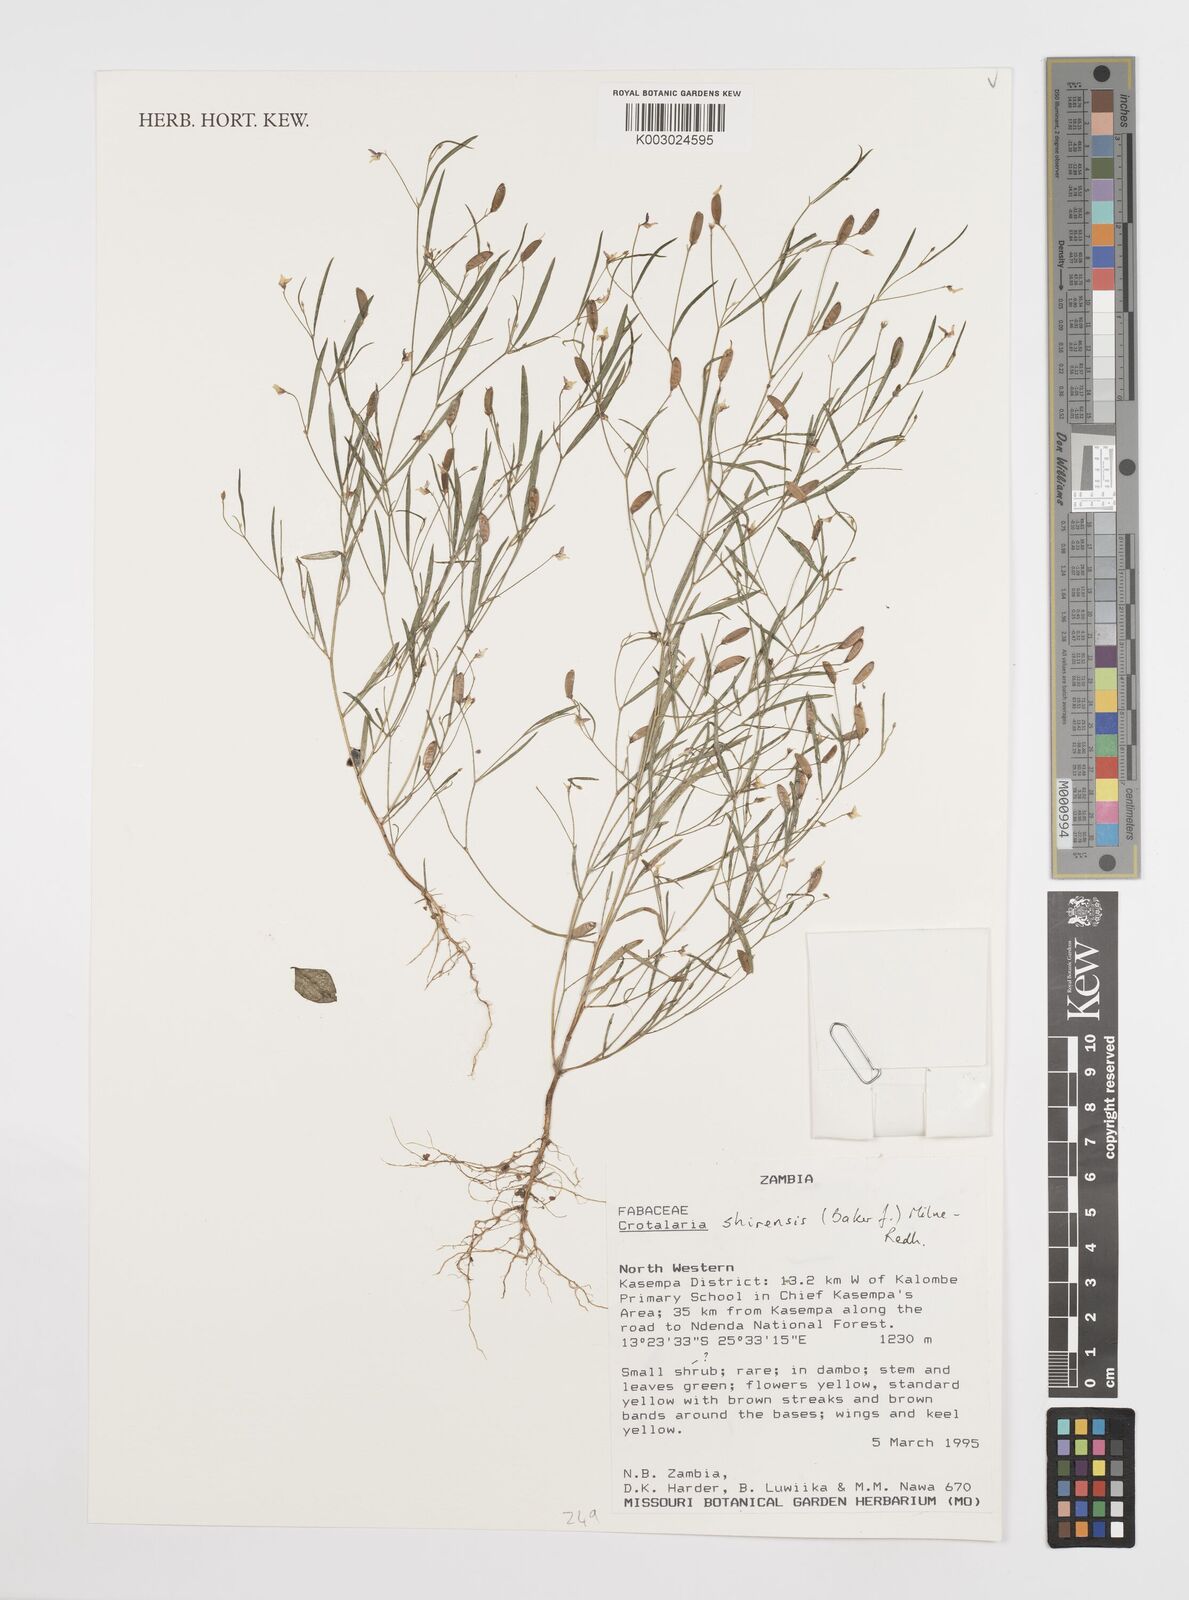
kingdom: Plantae
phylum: Tracheophyta
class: Magnoliopsida
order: Fabales
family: Fabaceae
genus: Crotalaria
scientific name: Crotalaria shirensis
